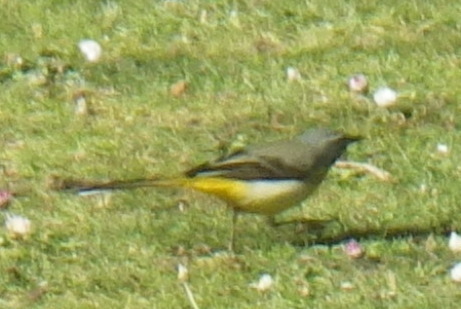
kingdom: Animalia
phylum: Chordata
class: Aves
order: Passeriformes
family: Motacillidae
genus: Motacilla
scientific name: Motacilla cinerea
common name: Grey wagtail
